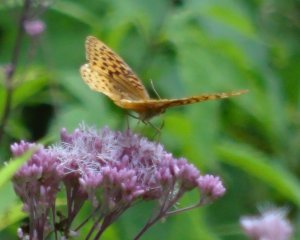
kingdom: Animalia
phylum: Arthropoda
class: Insecta
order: Lepidoptera
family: Nymphalidae
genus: Speyeria
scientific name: Speyeria cybele
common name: Great Spangled Fritillary
